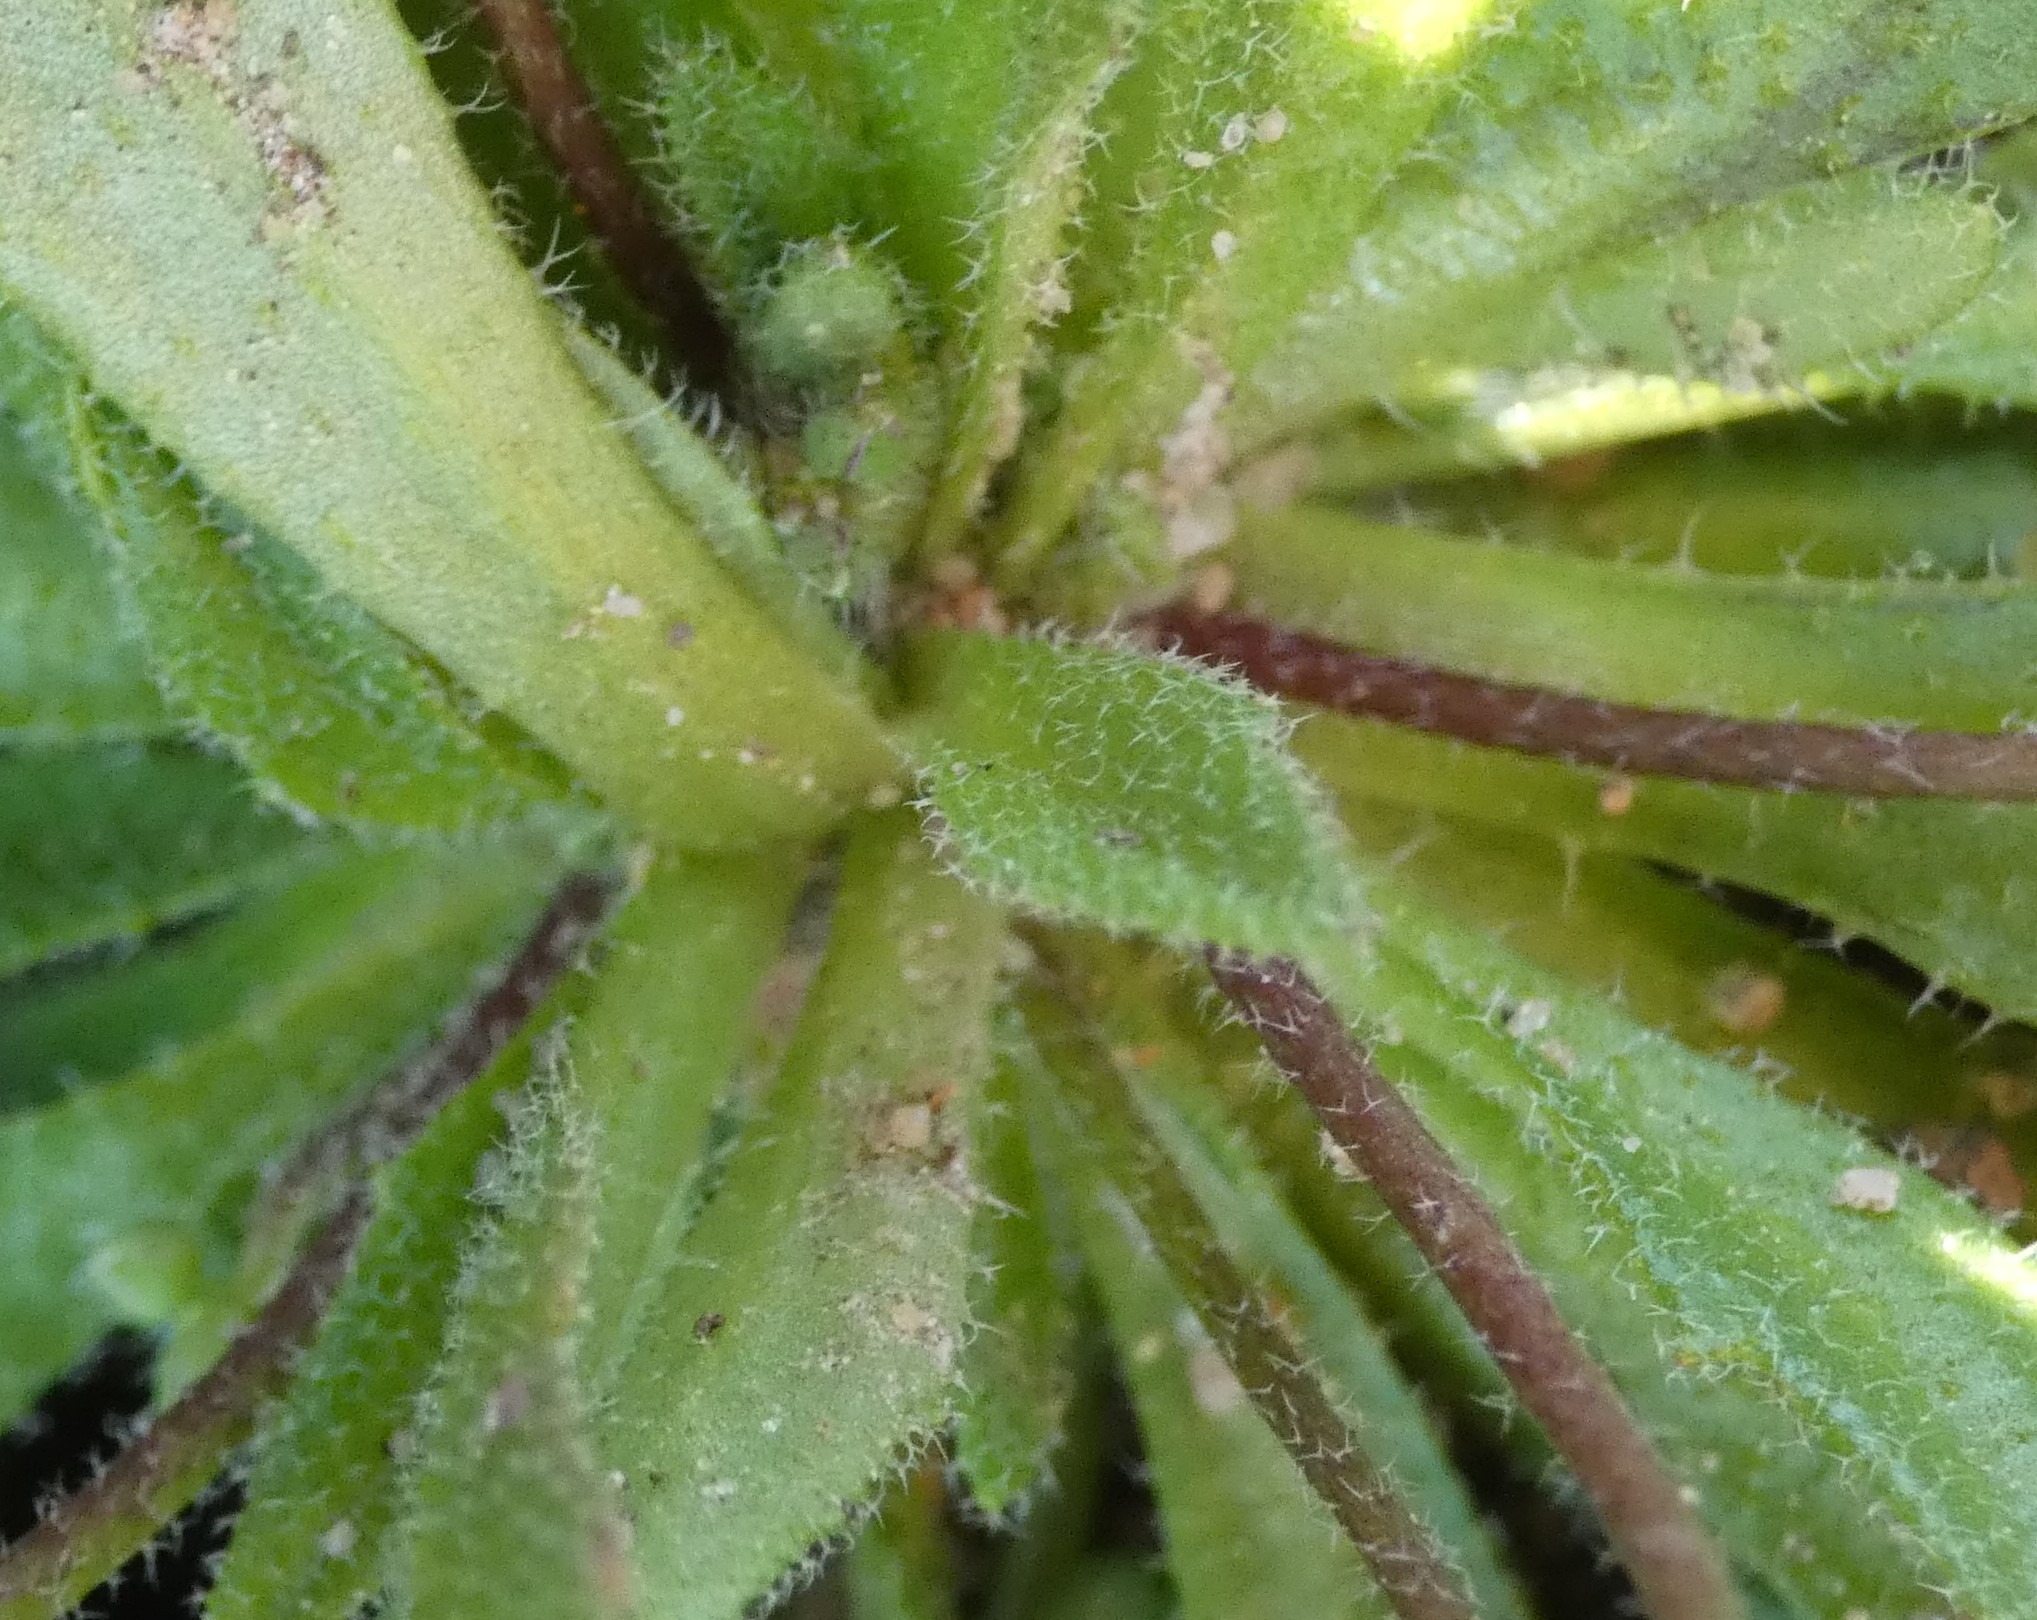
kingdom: Plantae
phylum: Tracheophyta
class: Magnoliopsida
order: Brassicales
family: Brassicaceae
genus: Draba
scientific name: Draba verna
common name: Vår-gæslingeblomst
